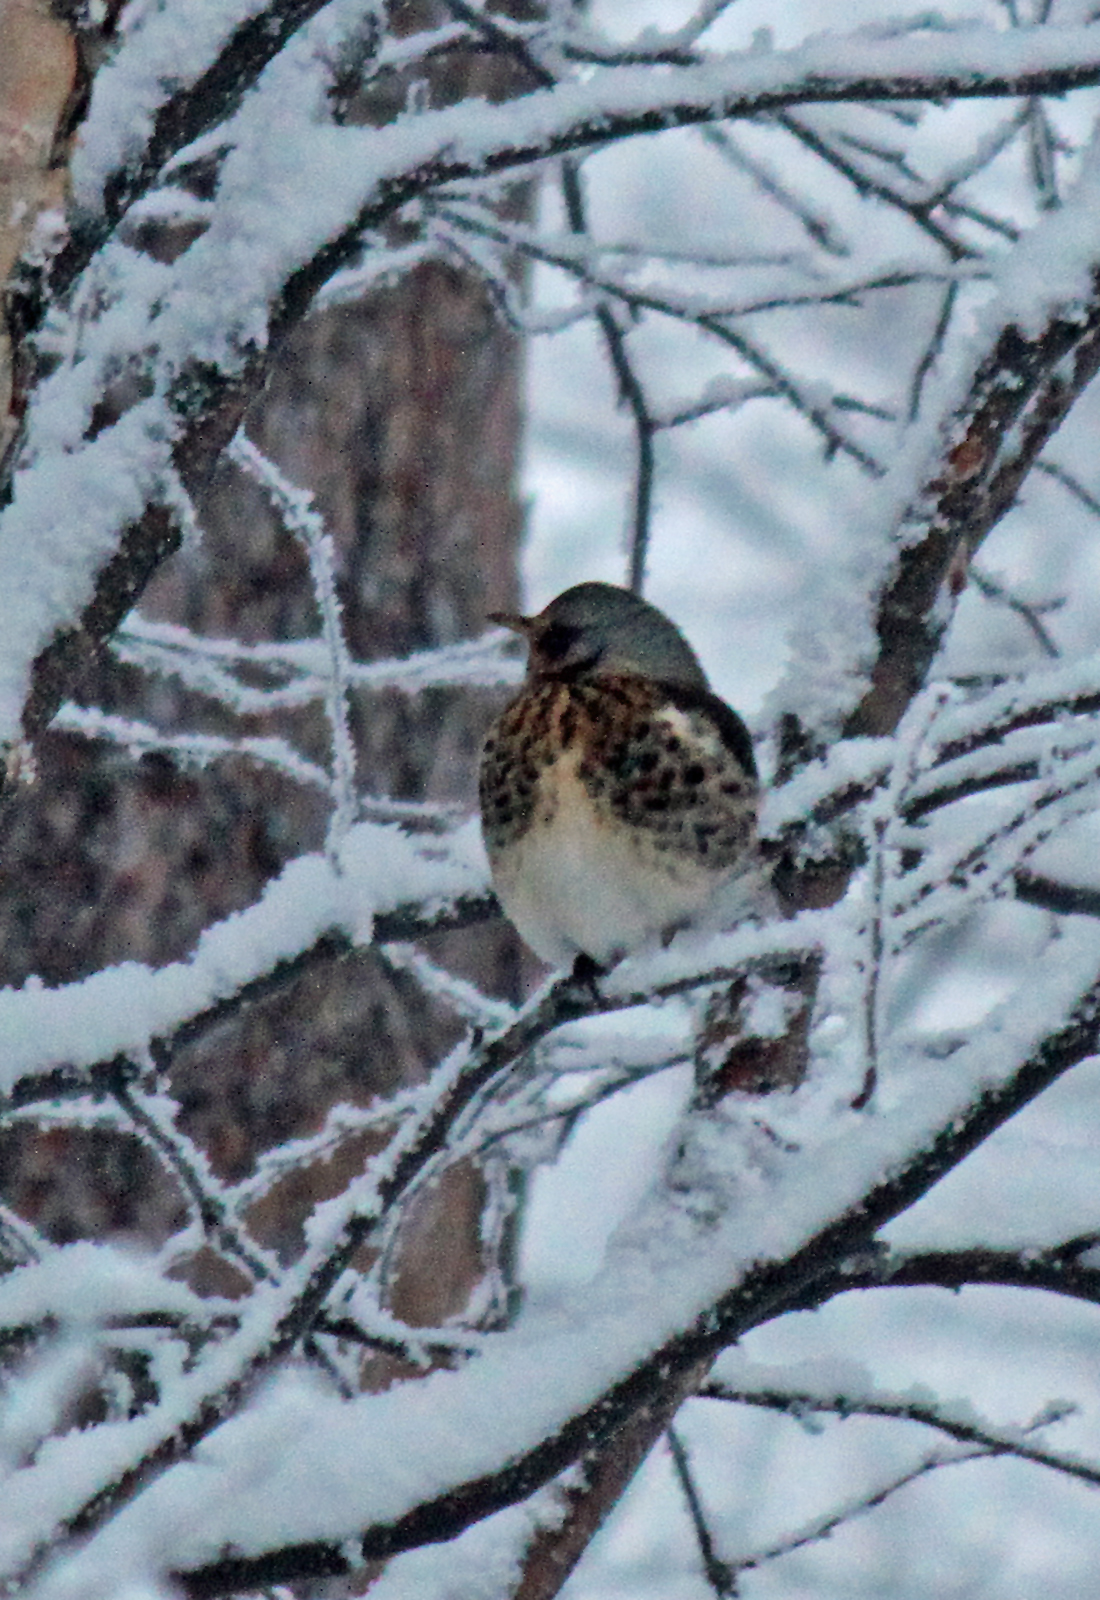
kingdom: Animalia
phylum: Chordata
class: Aves
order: Passeriformes
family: Turdidae
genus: Turdus
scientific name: Turdus pilaris
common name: Fieldfare
